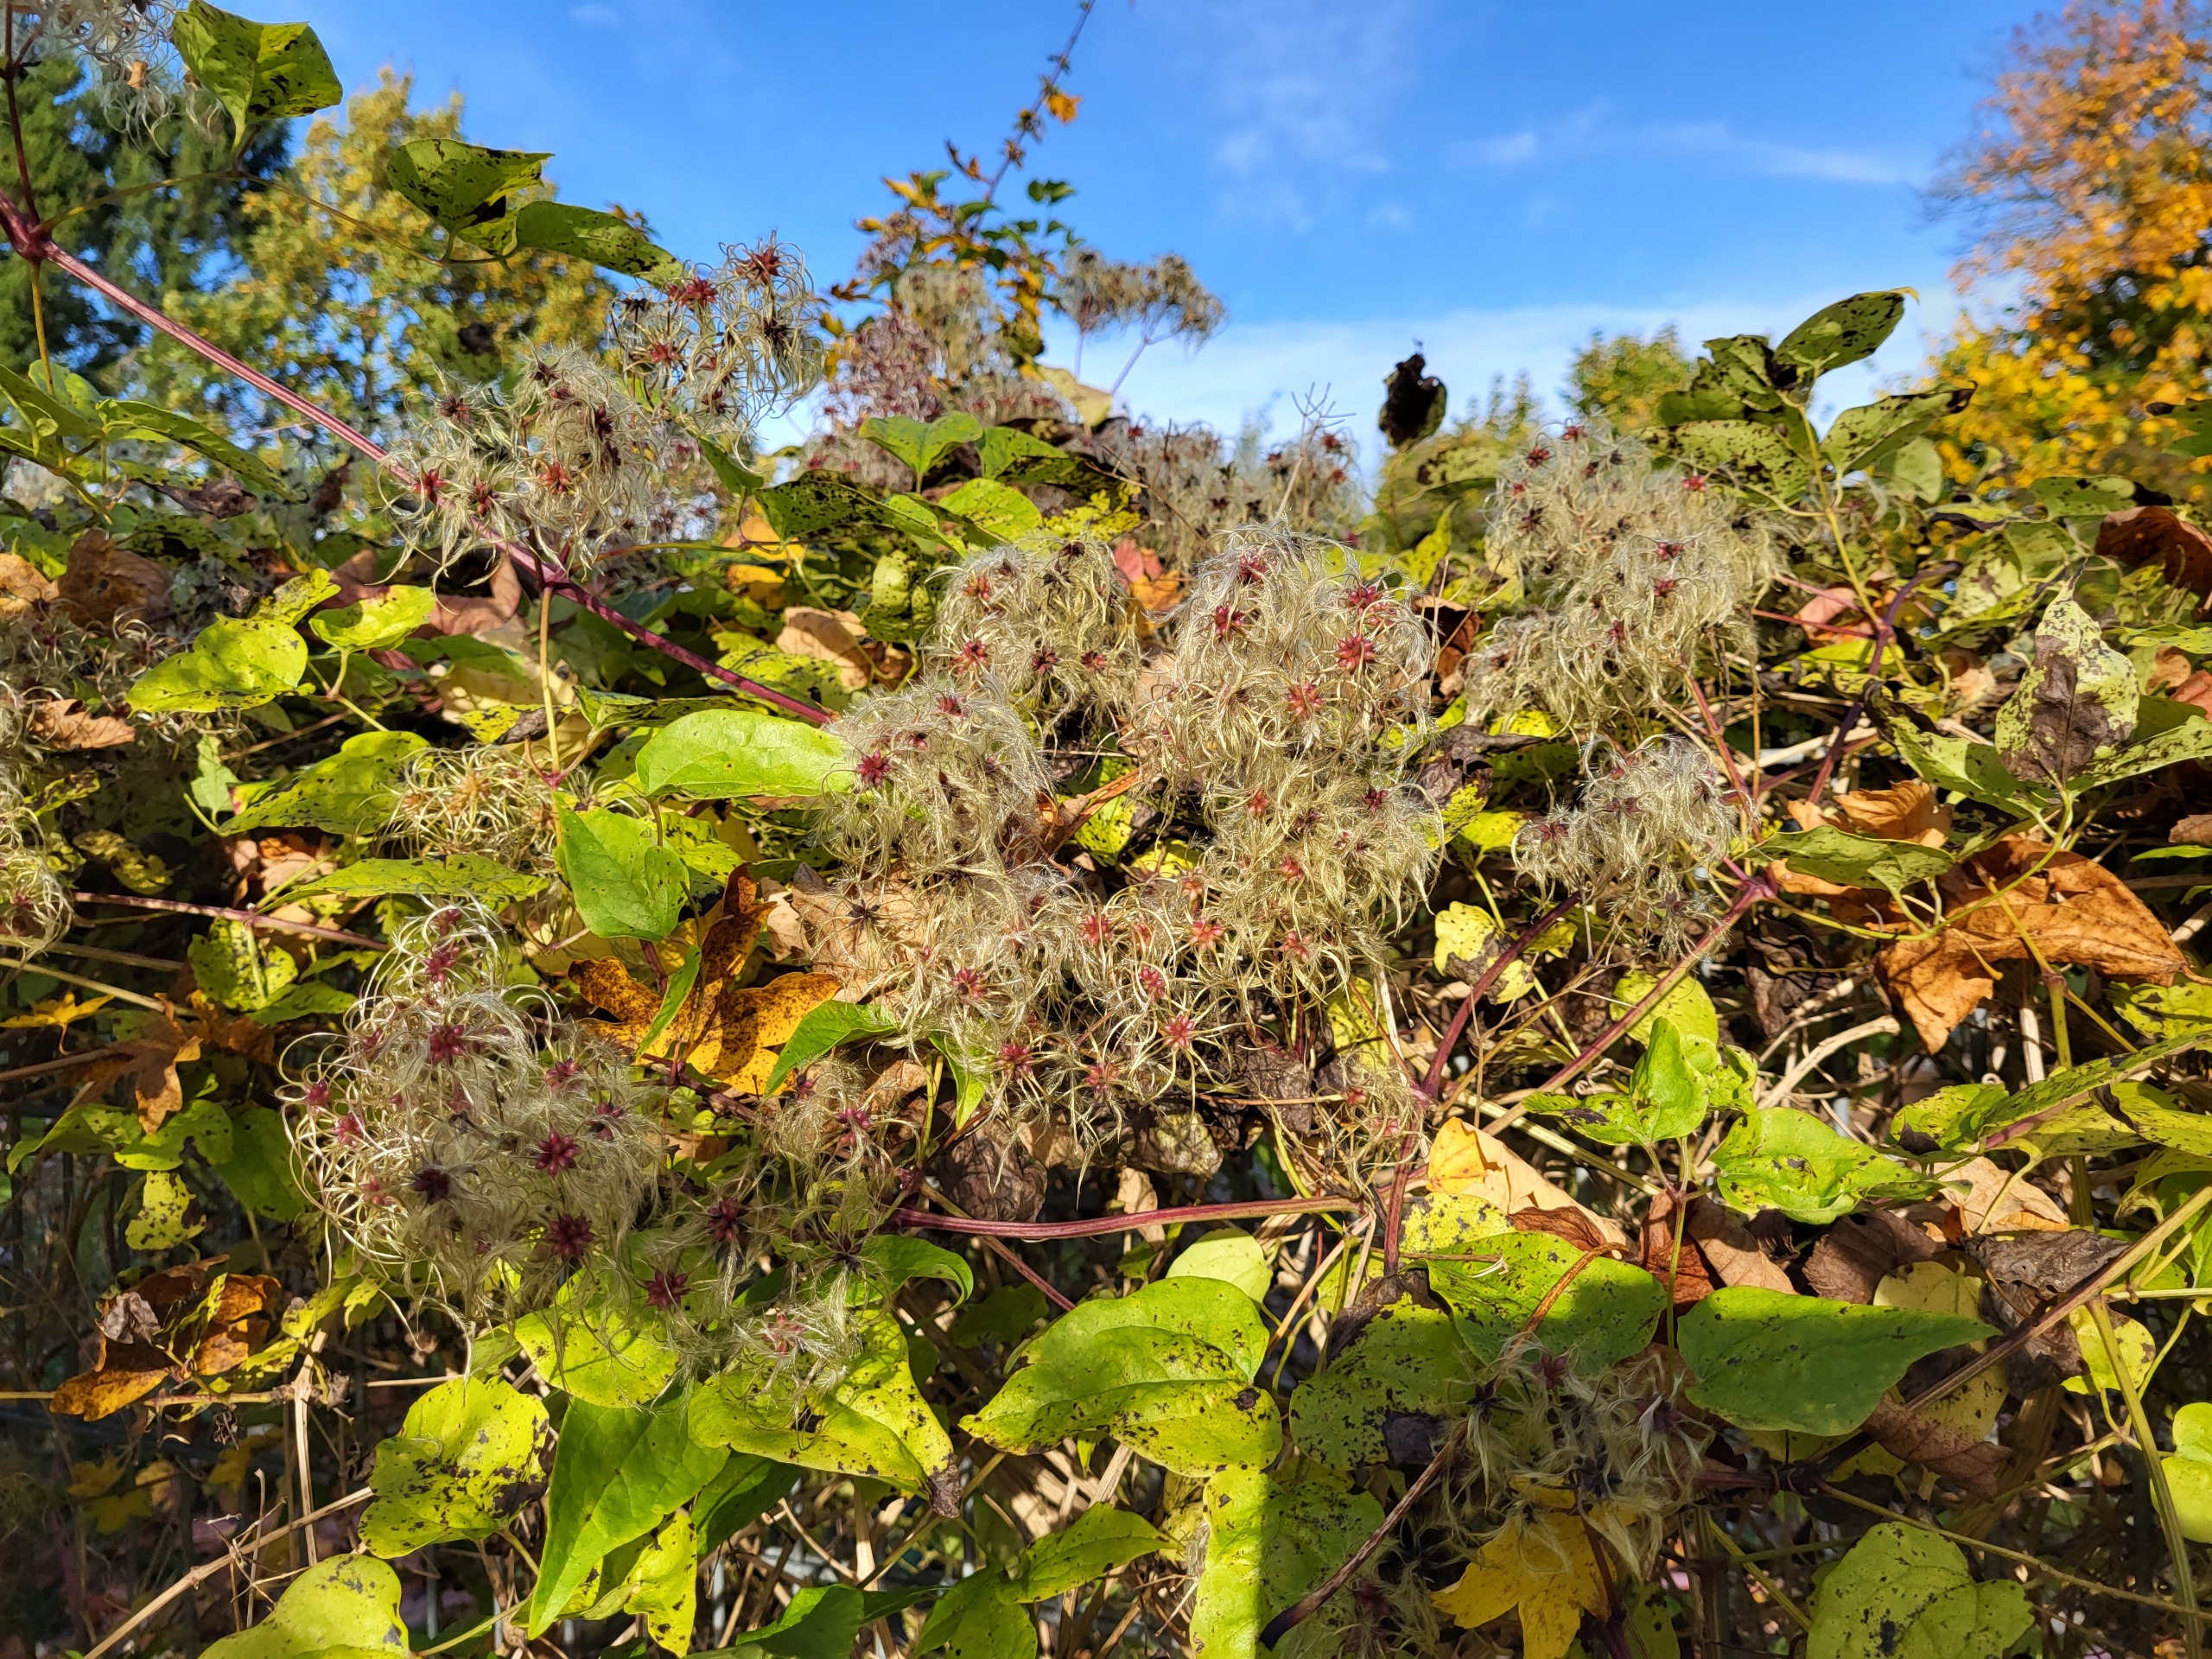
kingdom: Plantae
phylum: Tracheophyta
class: Magnoliopsida
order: Ranunculales
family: Ranunculaceae
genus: Clematis
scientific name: Clematis vitalba
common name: Skovranke
